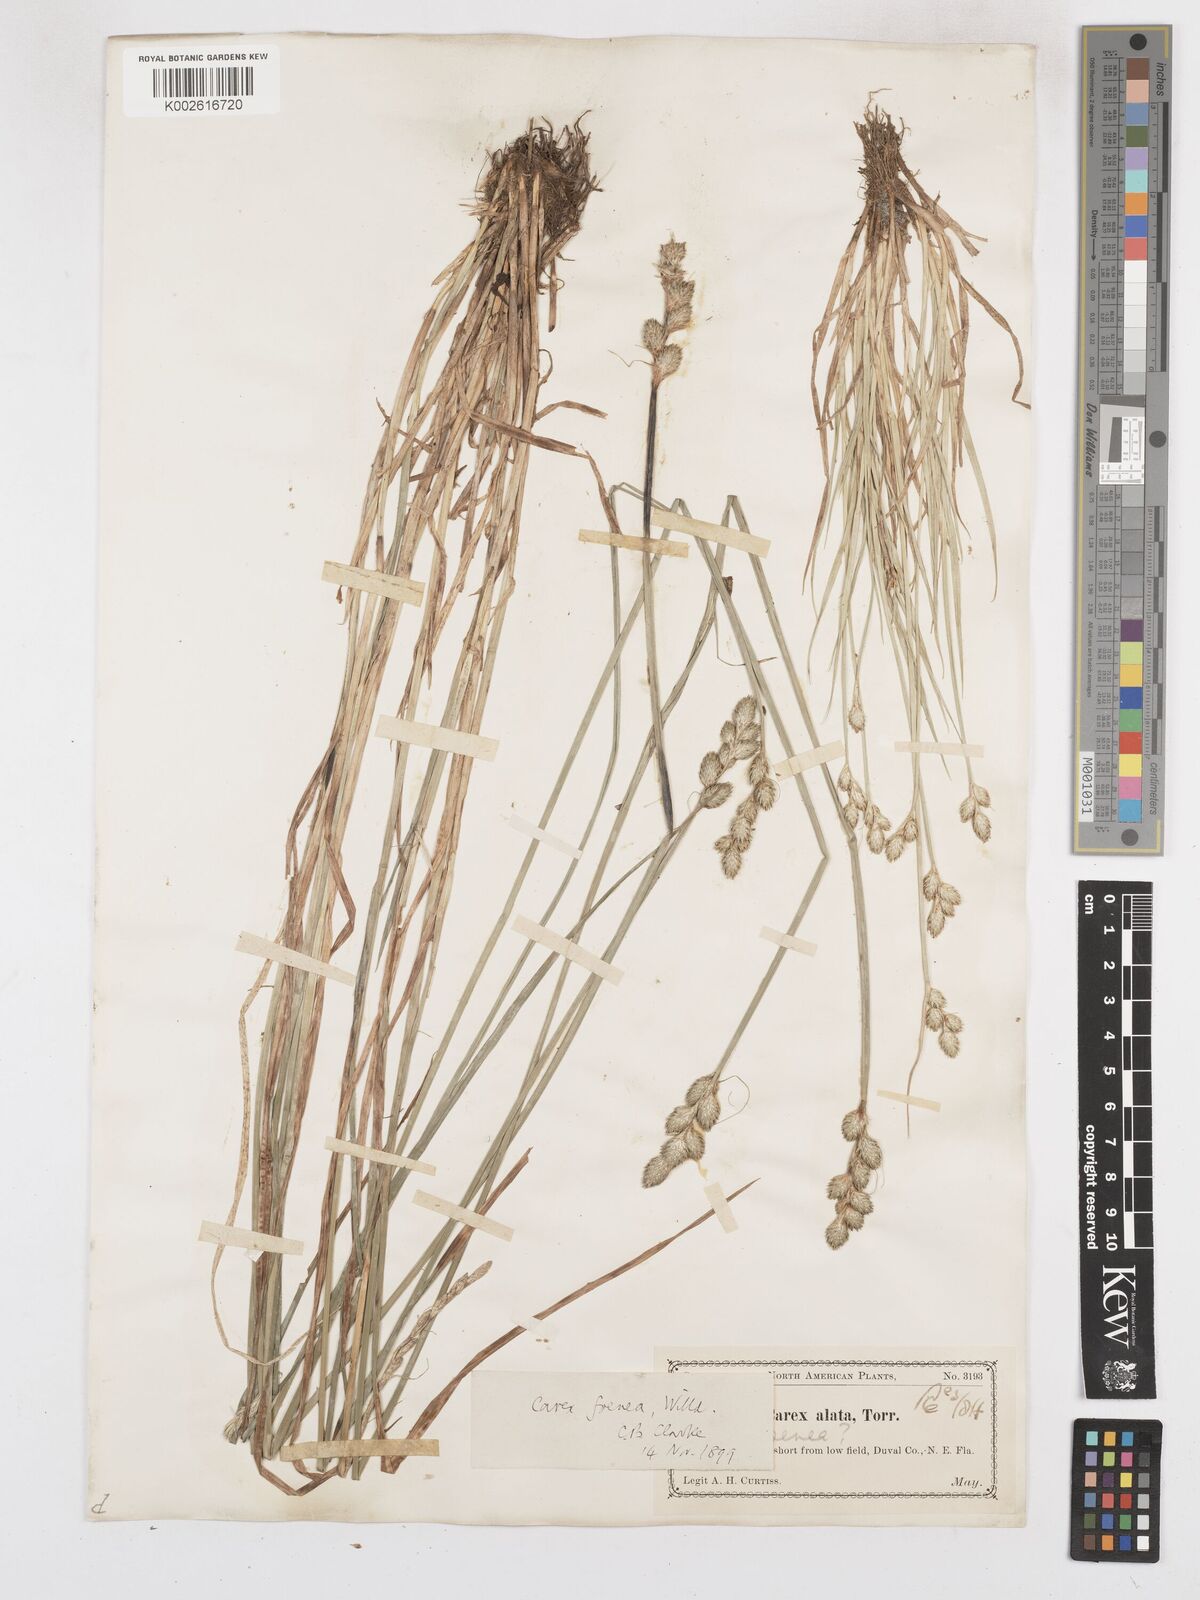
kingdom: Plantae
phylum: Tracheophyta
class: Liliopsida
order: Poales
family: Cyperaceae
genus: Carex
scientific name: Carex argyrantha
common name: Silvery-flowered sedge
